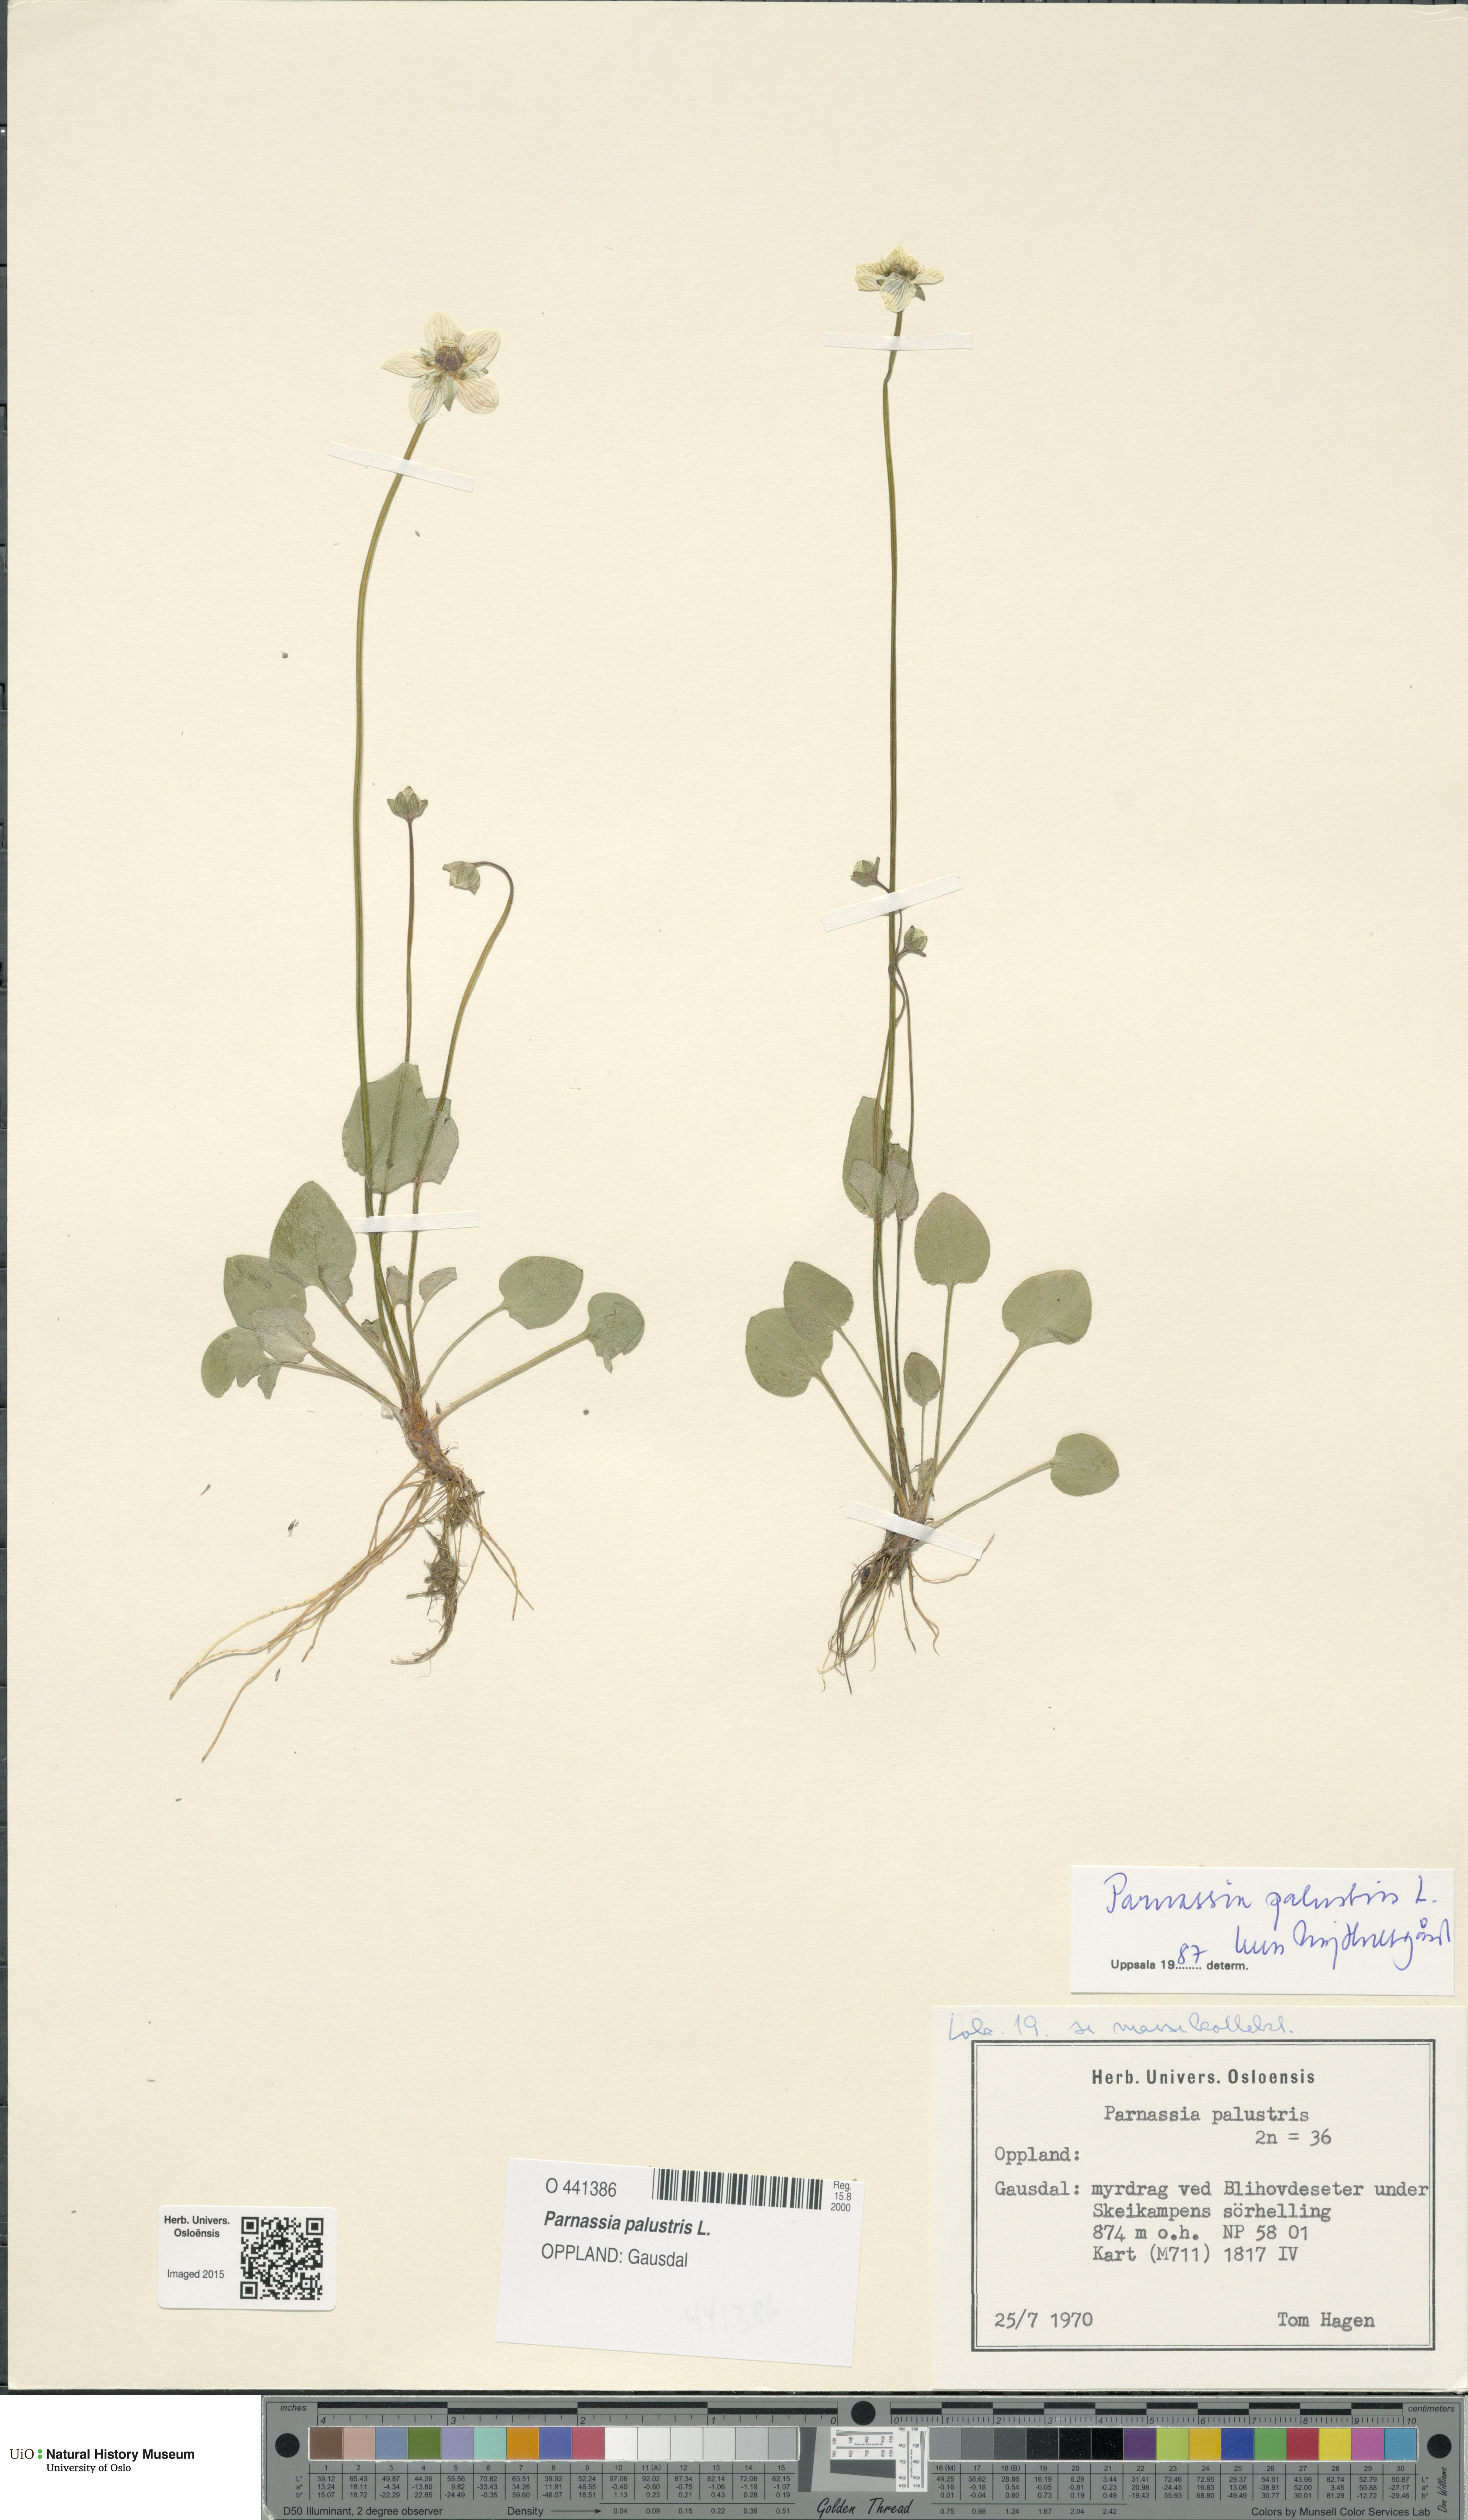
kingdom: Plantae
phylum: Tracheophyta
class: Magnoliopsida
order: Celastrales
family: Parnassiaceae
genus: Parnassia
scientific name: Parnassia palustris
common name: Grass-of-parnassus
